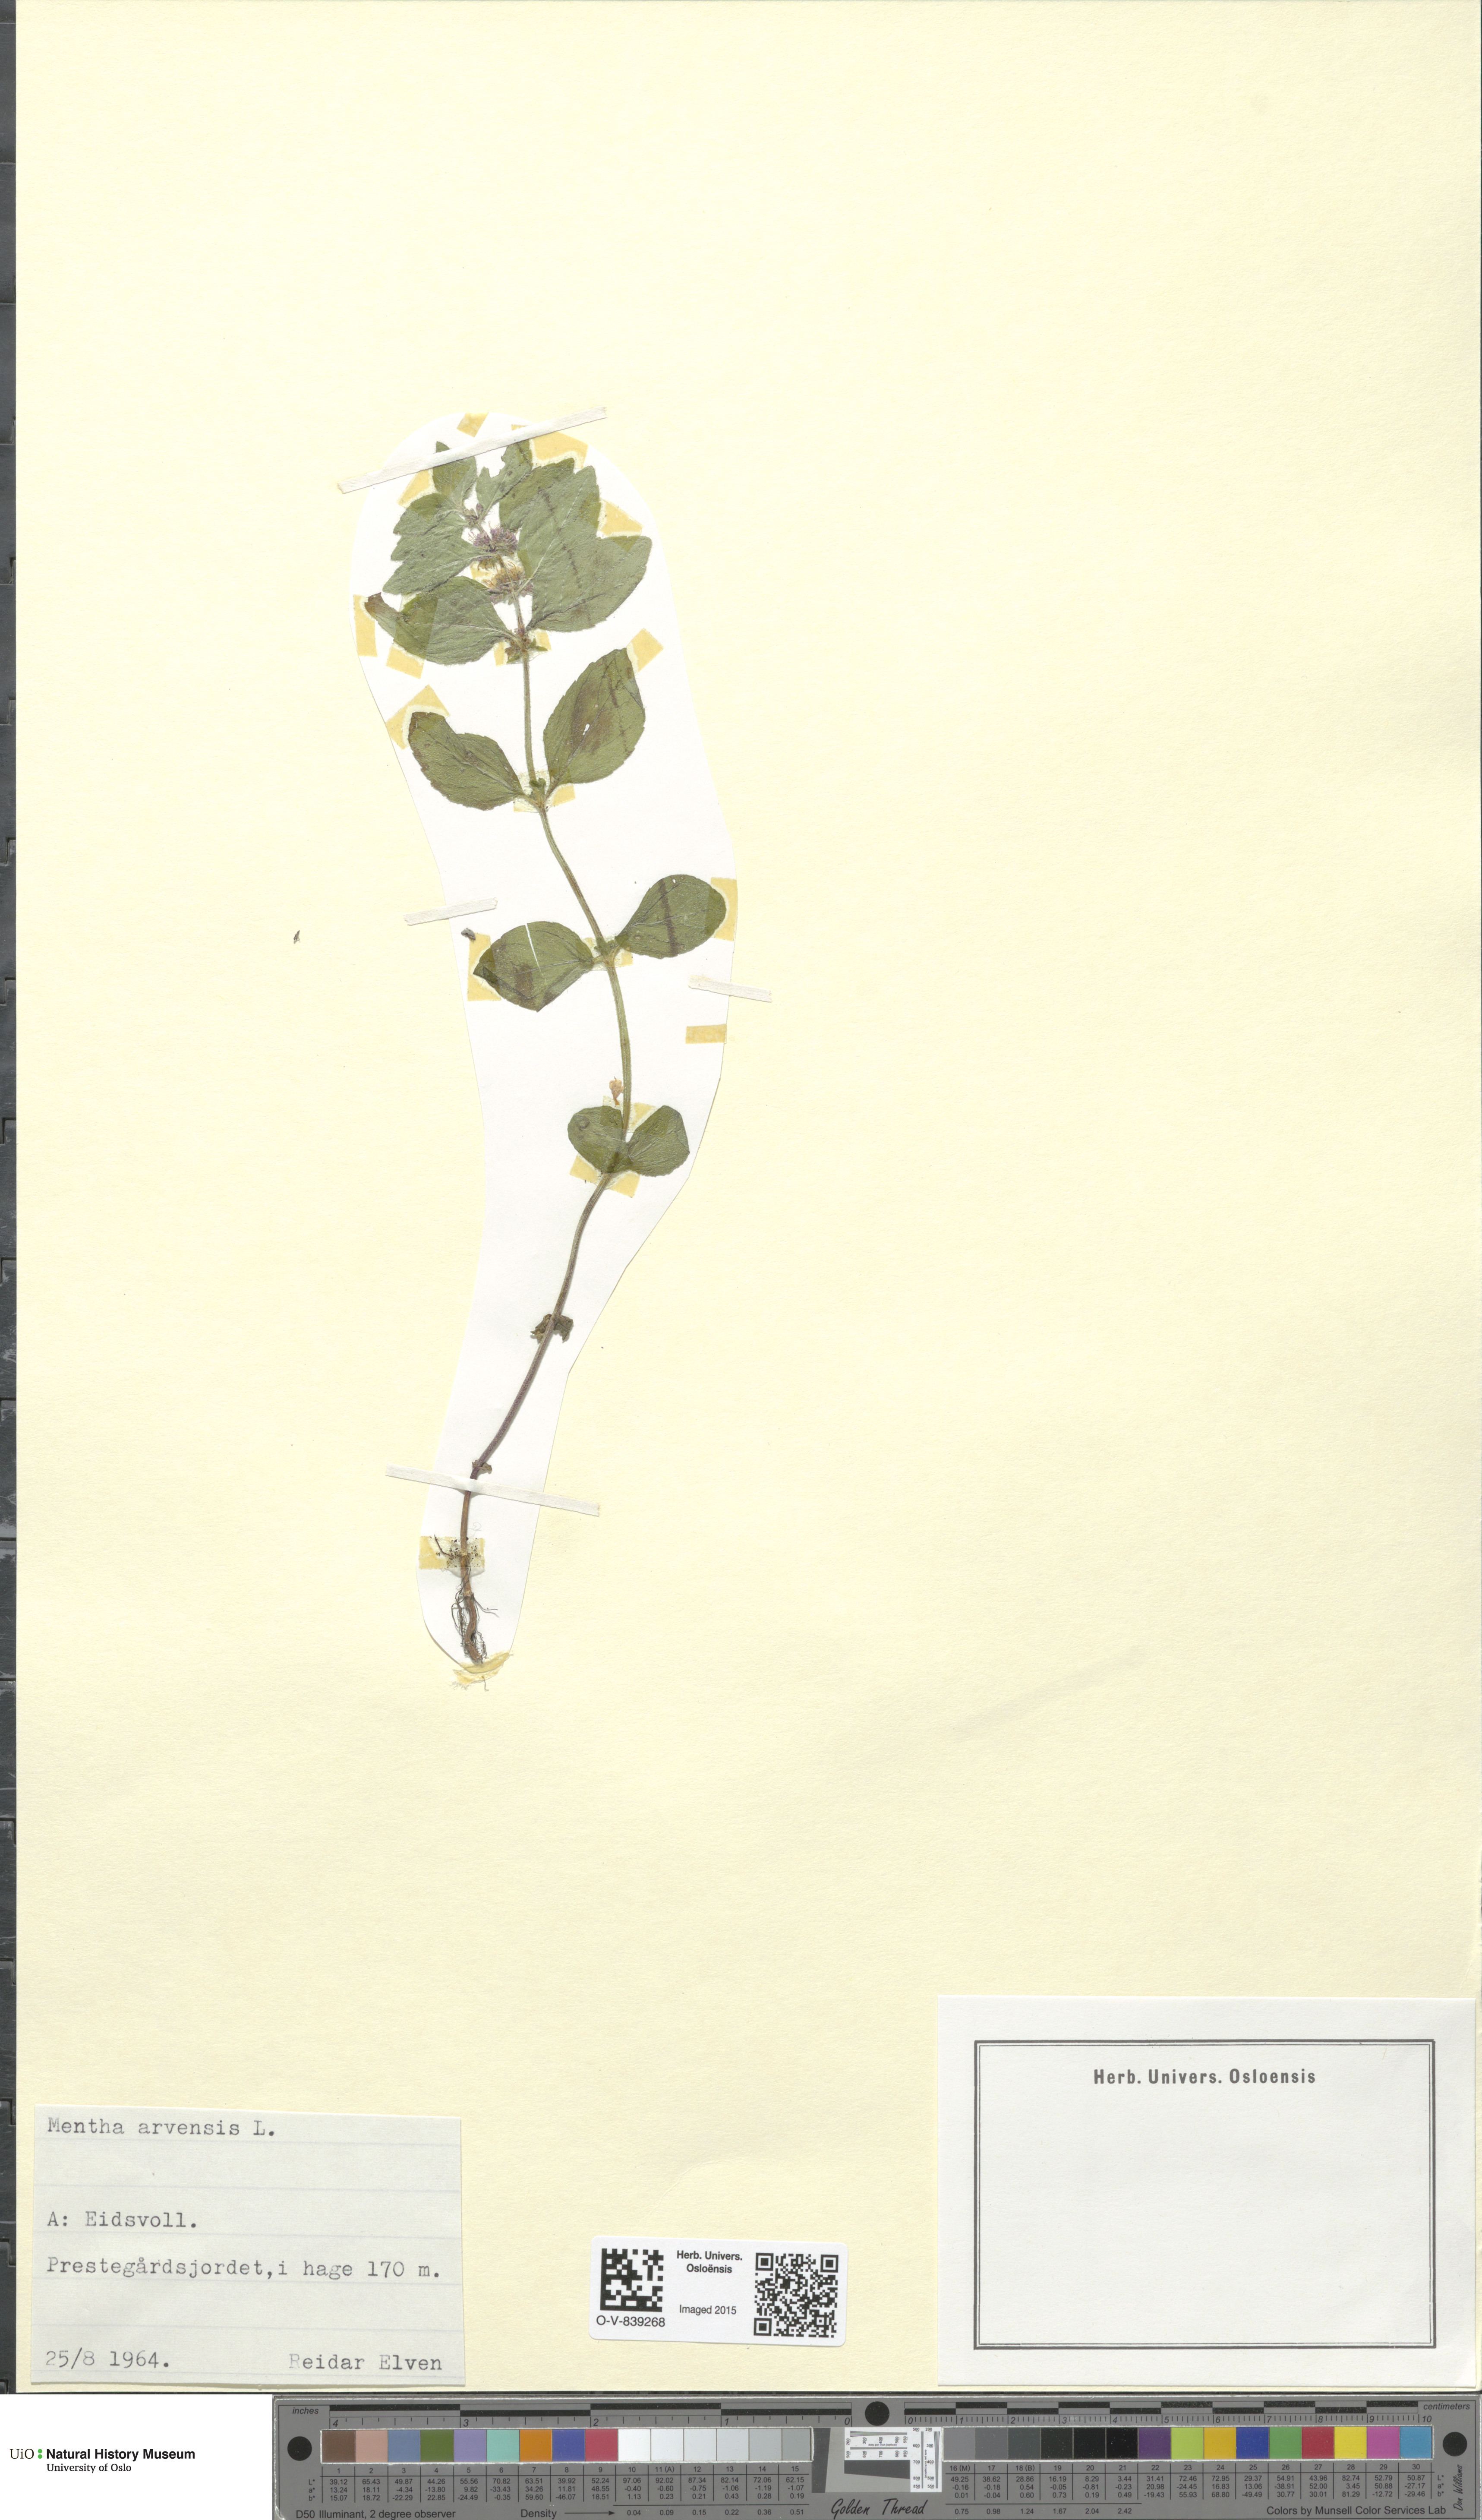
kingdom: Plantae
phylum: Tracheophyta
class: Magnoliopsida
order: Lamiales
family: Lamiaceae
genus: Mentha
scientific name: Mentha arvensis
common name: Corn mint
